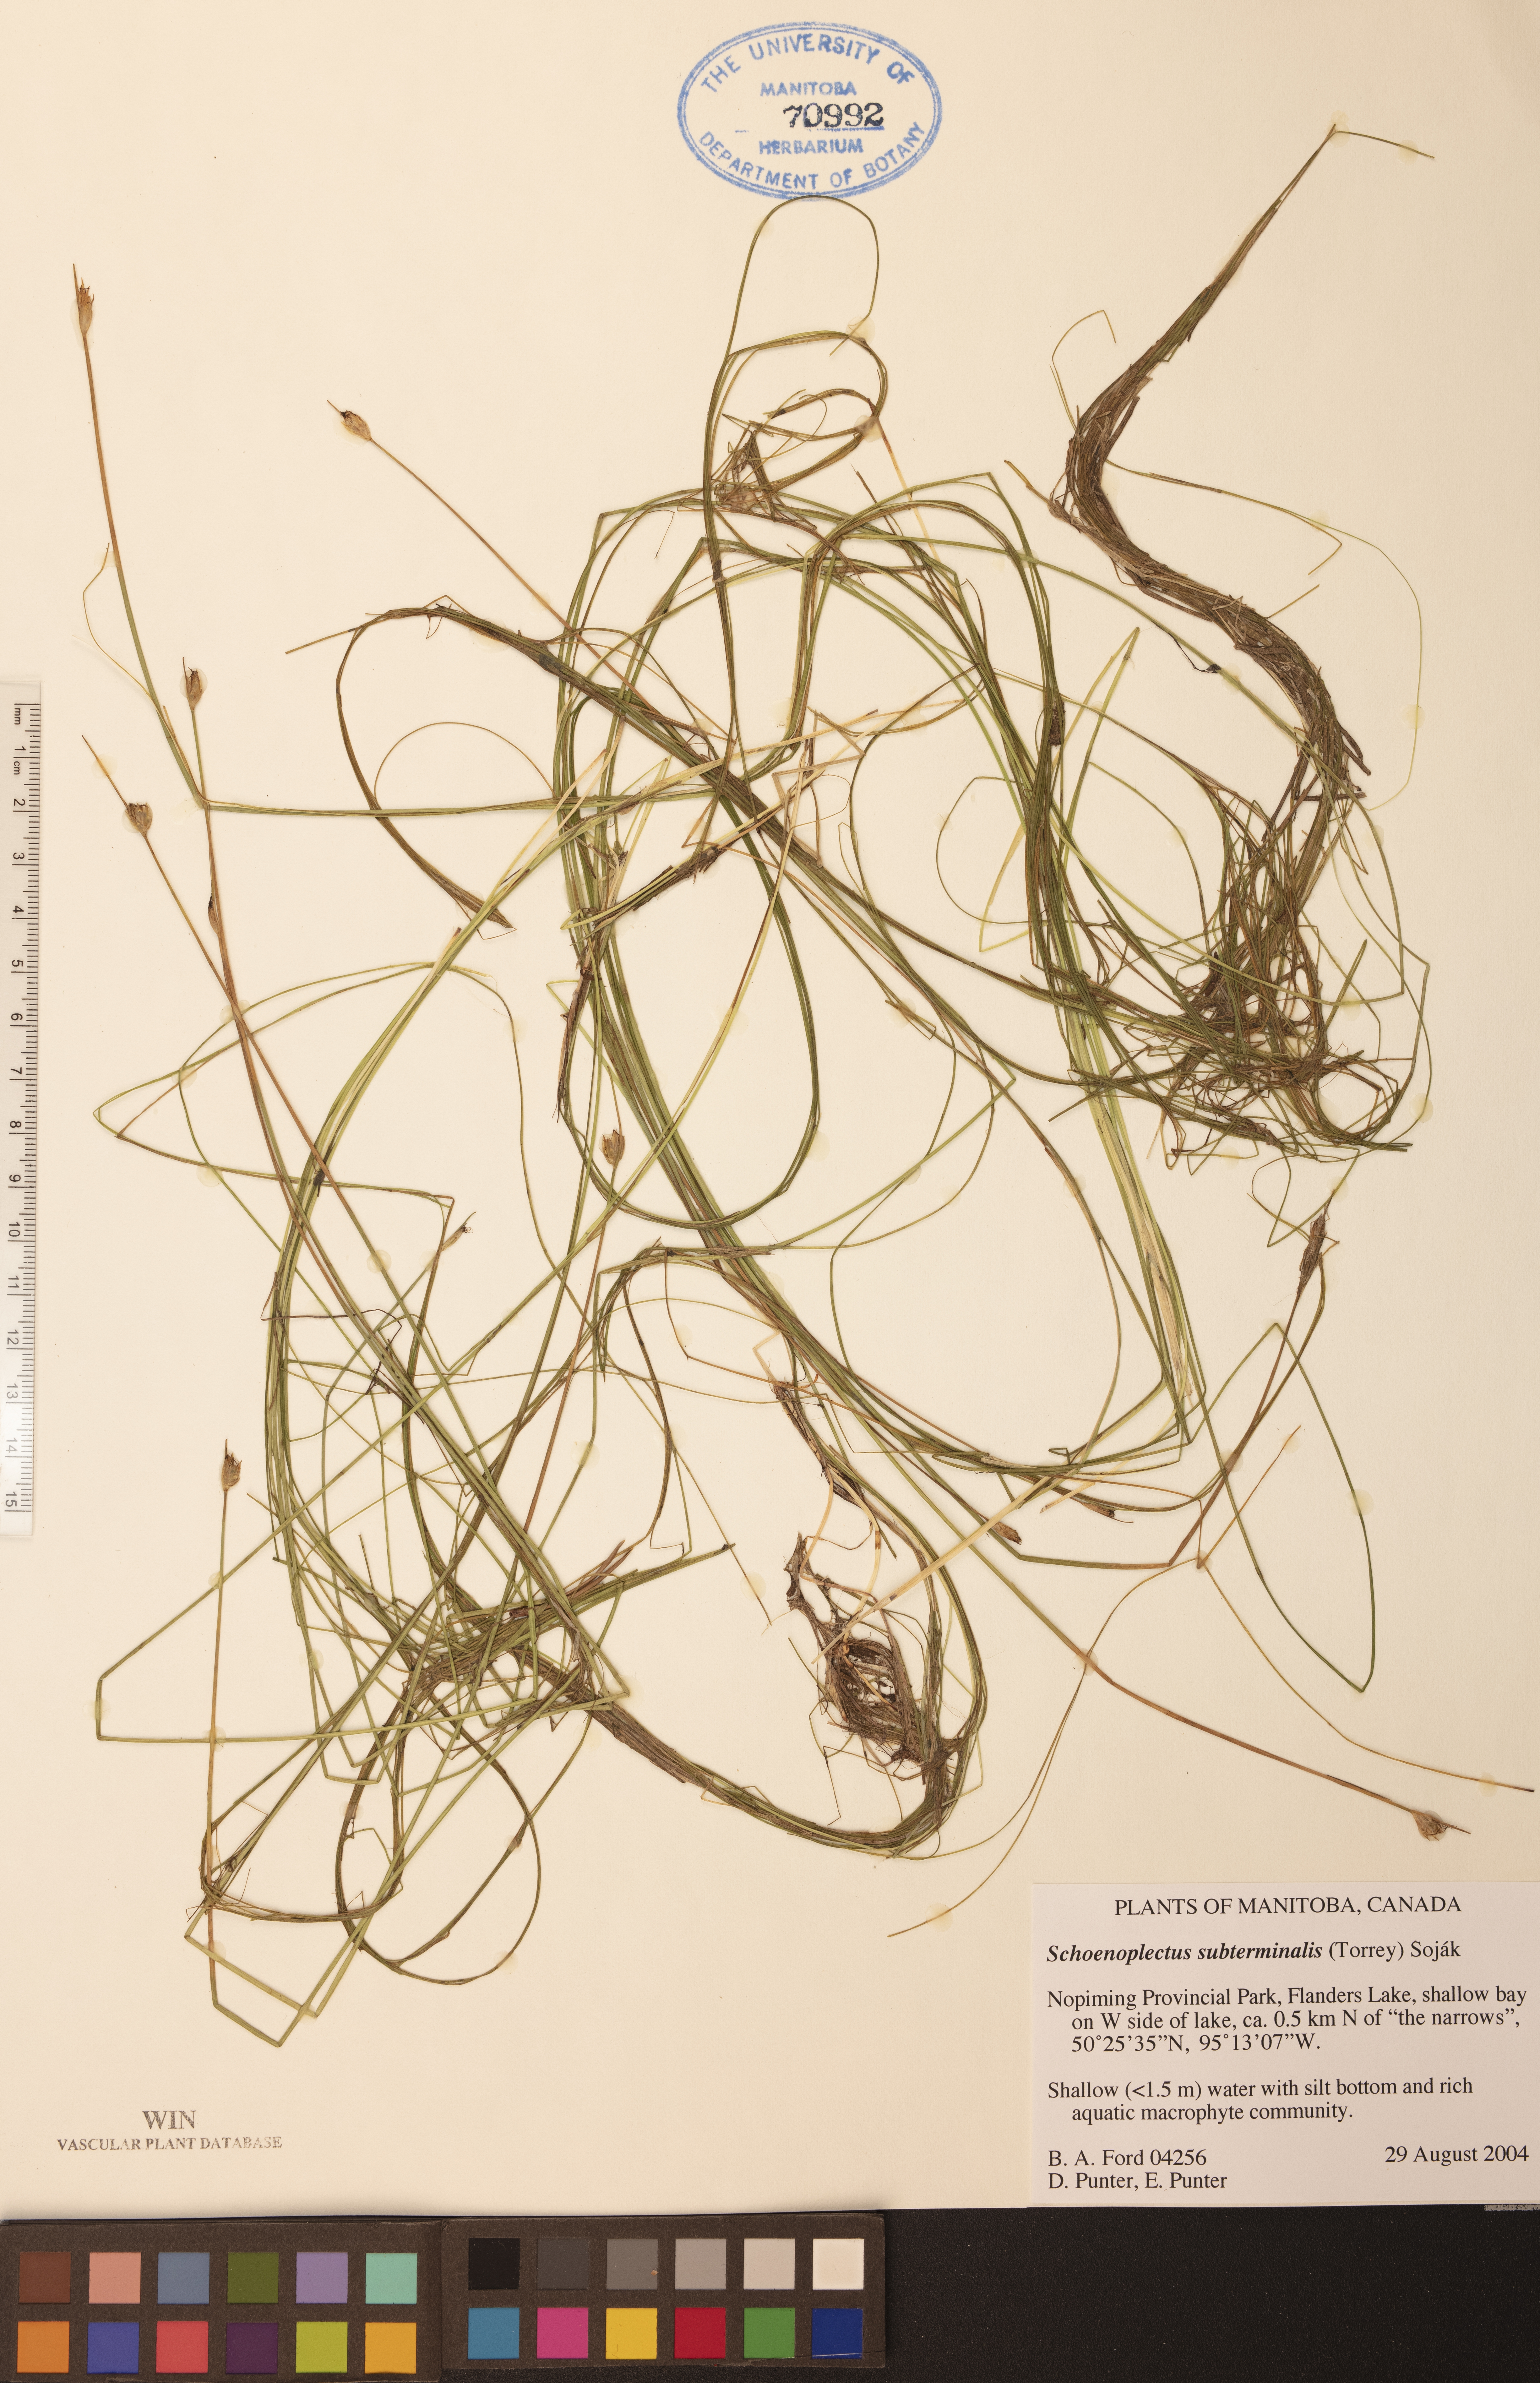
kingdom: Plantae
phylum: Tracheophyta
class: Liliopsida
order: Poales
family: Cyperaceae
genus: Schoenoplectus
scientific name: Schoenoplectus subterminalis
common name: Swaying bulrush
